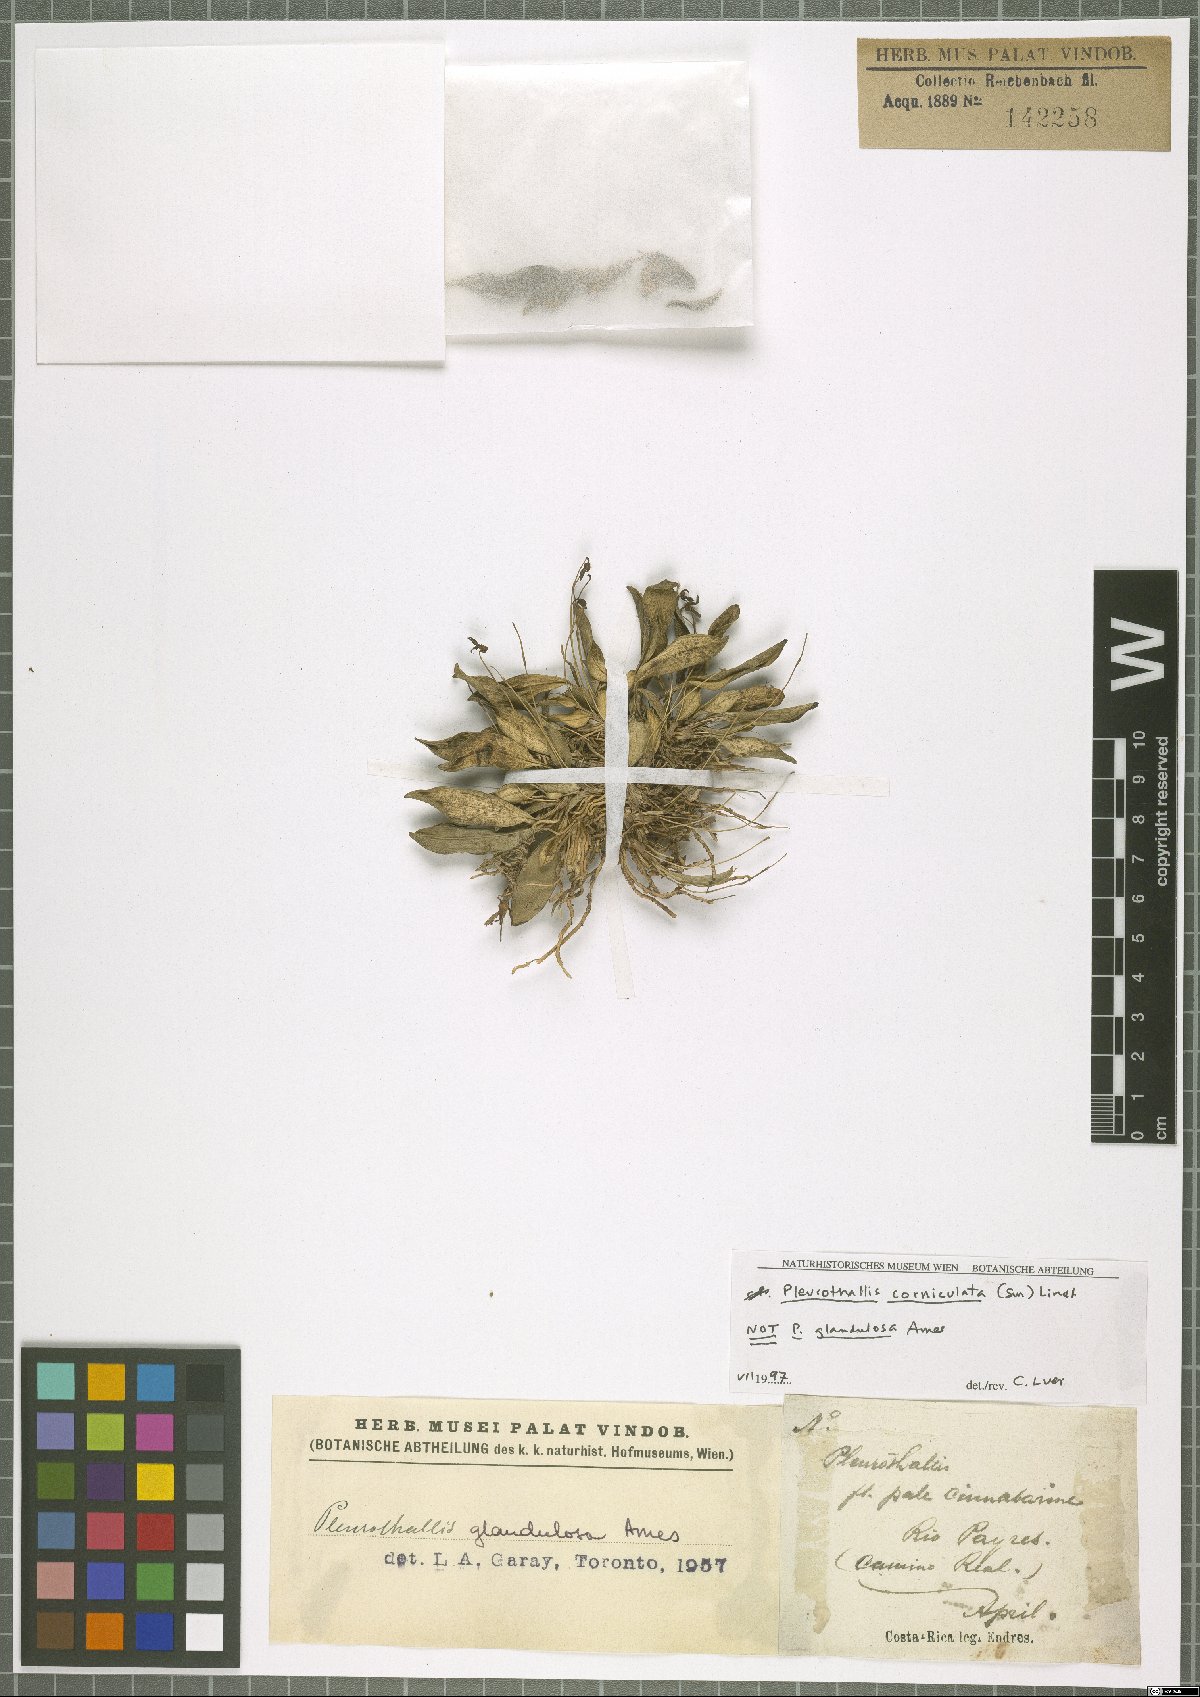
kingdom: Plantae
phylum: Tracheophyta
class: Liliopsida
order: Asparagales
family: Orchidaceae
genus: Specklinia
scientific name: Specklinia corniculata
